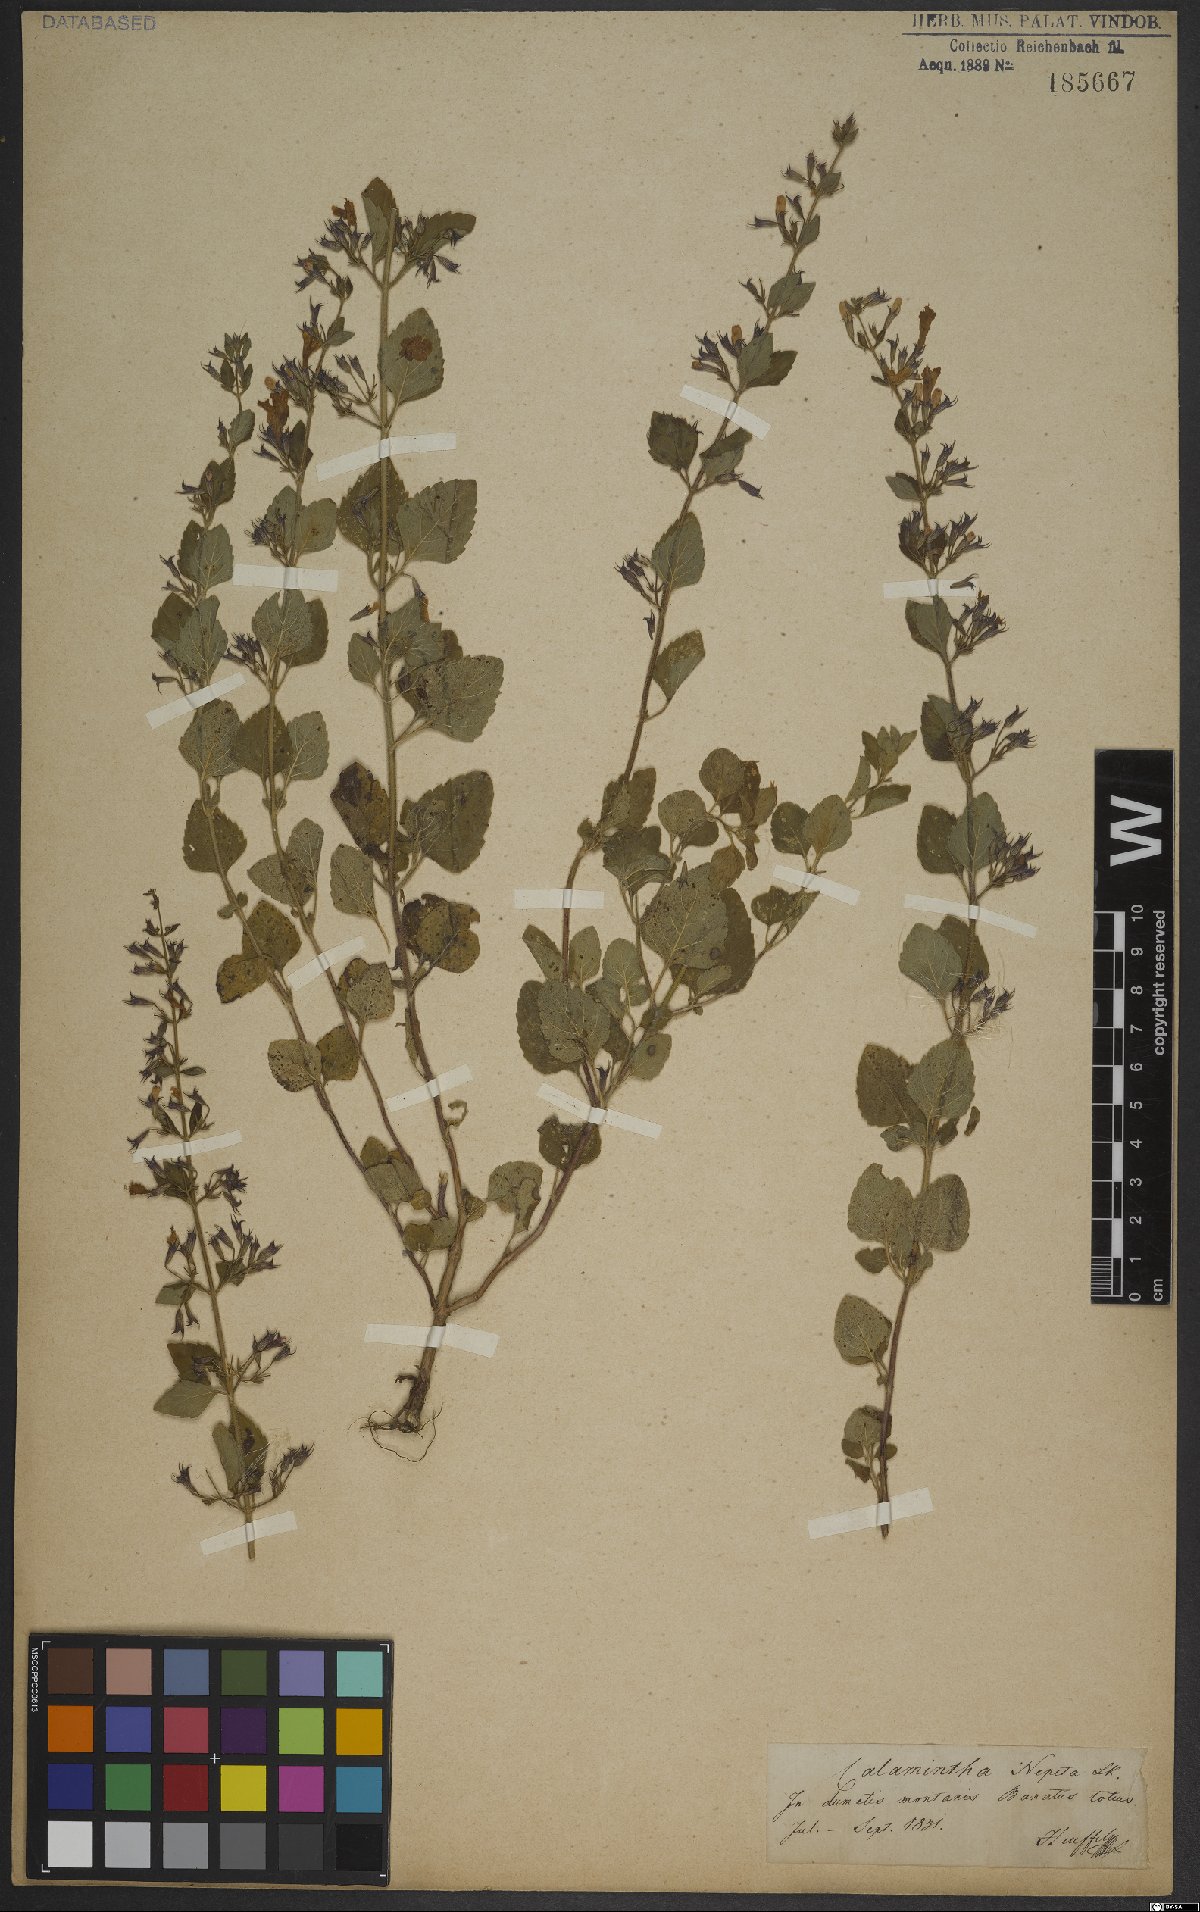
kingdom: Plantae
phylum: Tracheophyta
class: Magnoliopsida
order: Lamiales
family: Lamiaceae
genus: Clinopodium
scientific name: Clinopodium nepeta
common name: Lesser calamint
